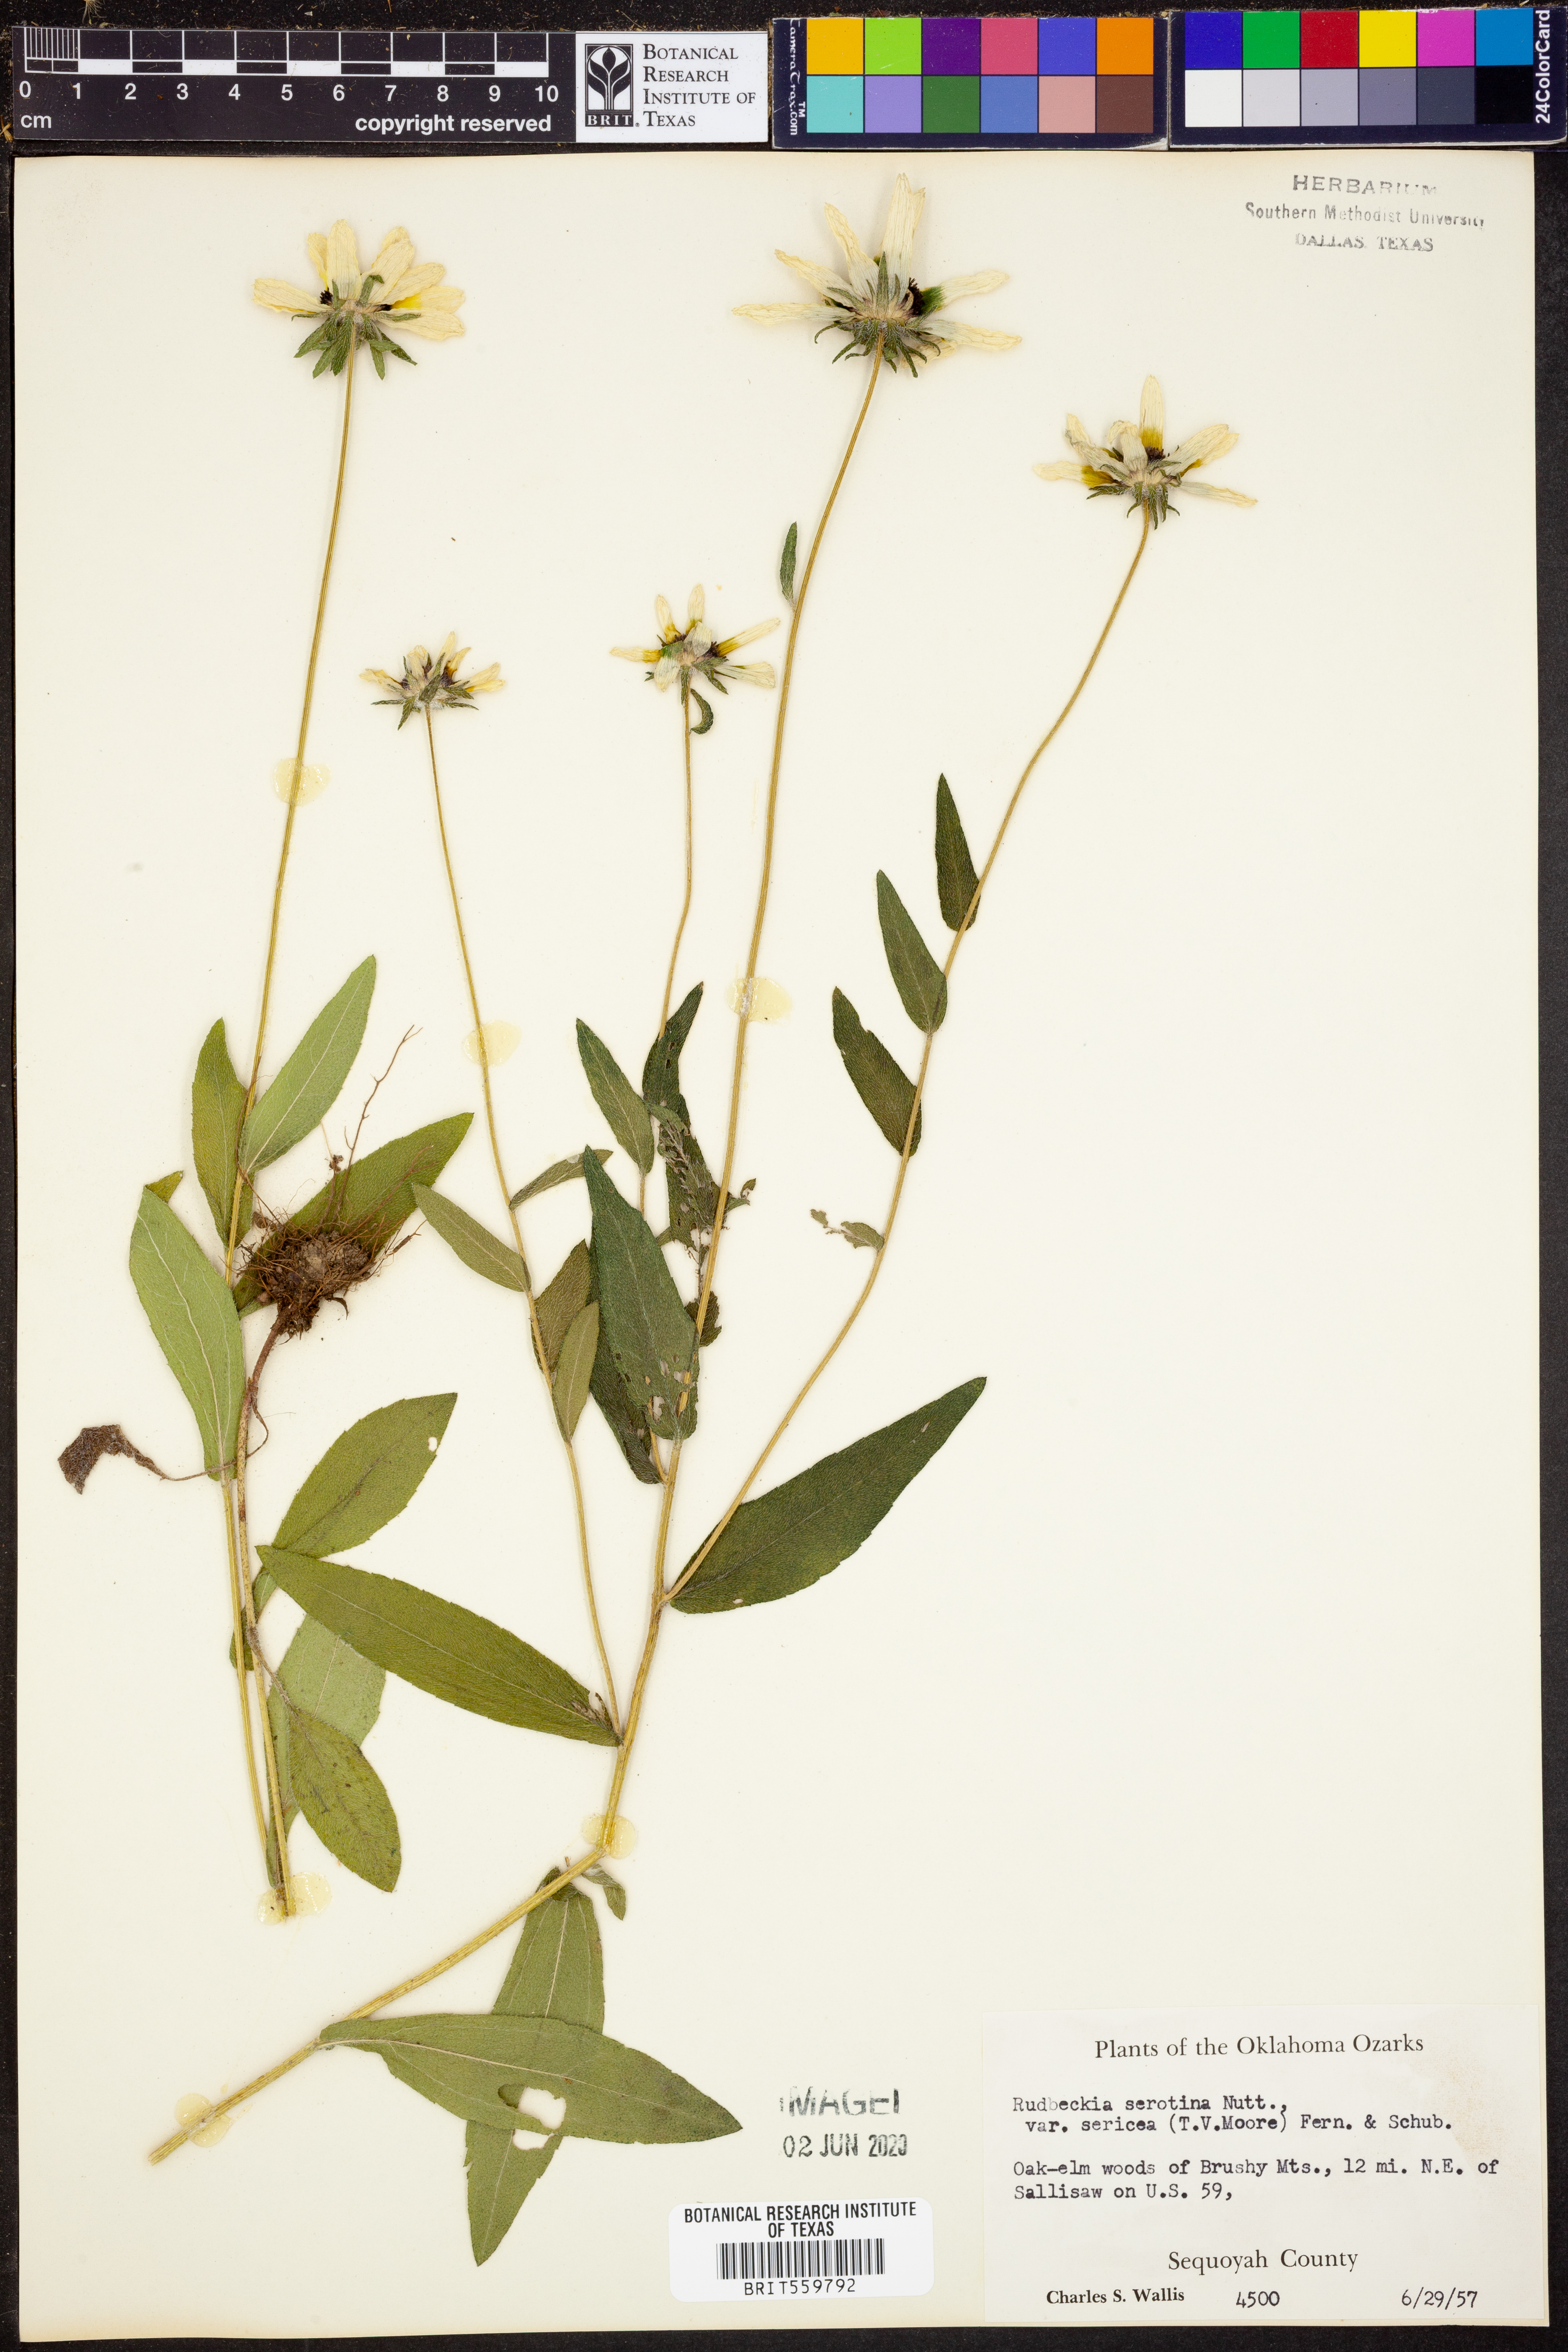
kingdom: Plantae
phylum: Tracheophyta
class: Magnoliopsida
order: Asterales
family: Asteraceae
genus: Rudbeckia
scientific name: Rudbeckia hirta
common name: Black-eyed-susan
